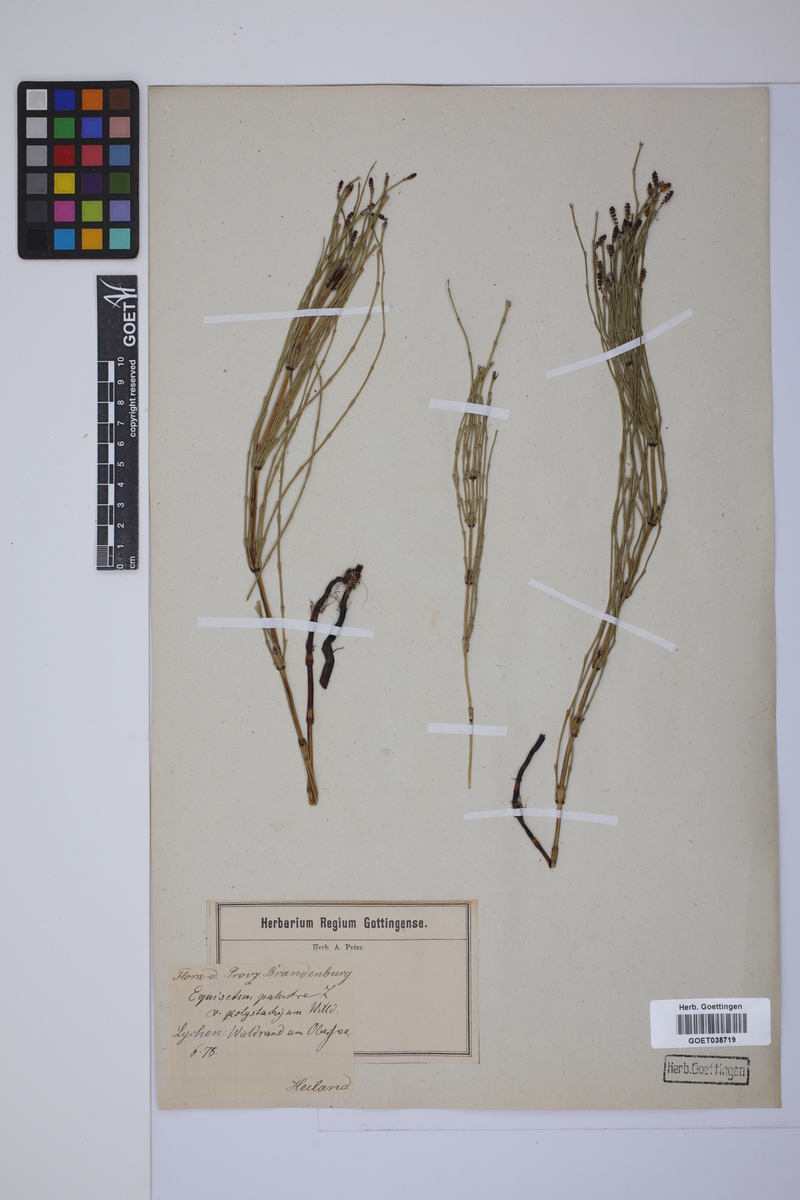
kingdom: Plantae
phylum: Tracheophyta
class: Polypodiopsida
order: Equisetales
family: Equisetaceae
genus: Equisetum
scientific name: Equisetum palustre
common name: Marsh horsetail
